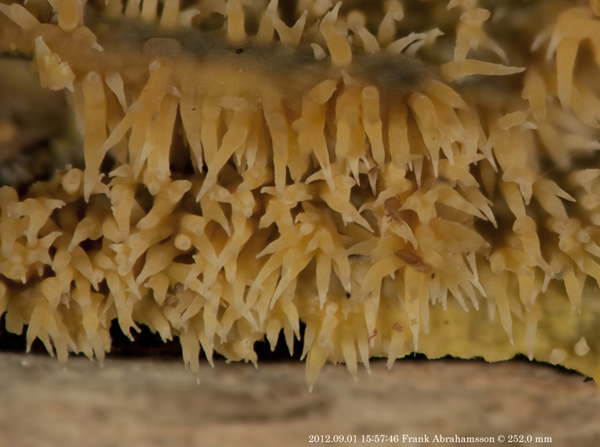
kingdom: Fungi
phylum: Basidiomycota
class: Agaricomycetes
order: Polyporales
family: Meruliaceae
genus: Mycoacia
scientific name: Mycoacia uda
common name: citrongul vokspig
